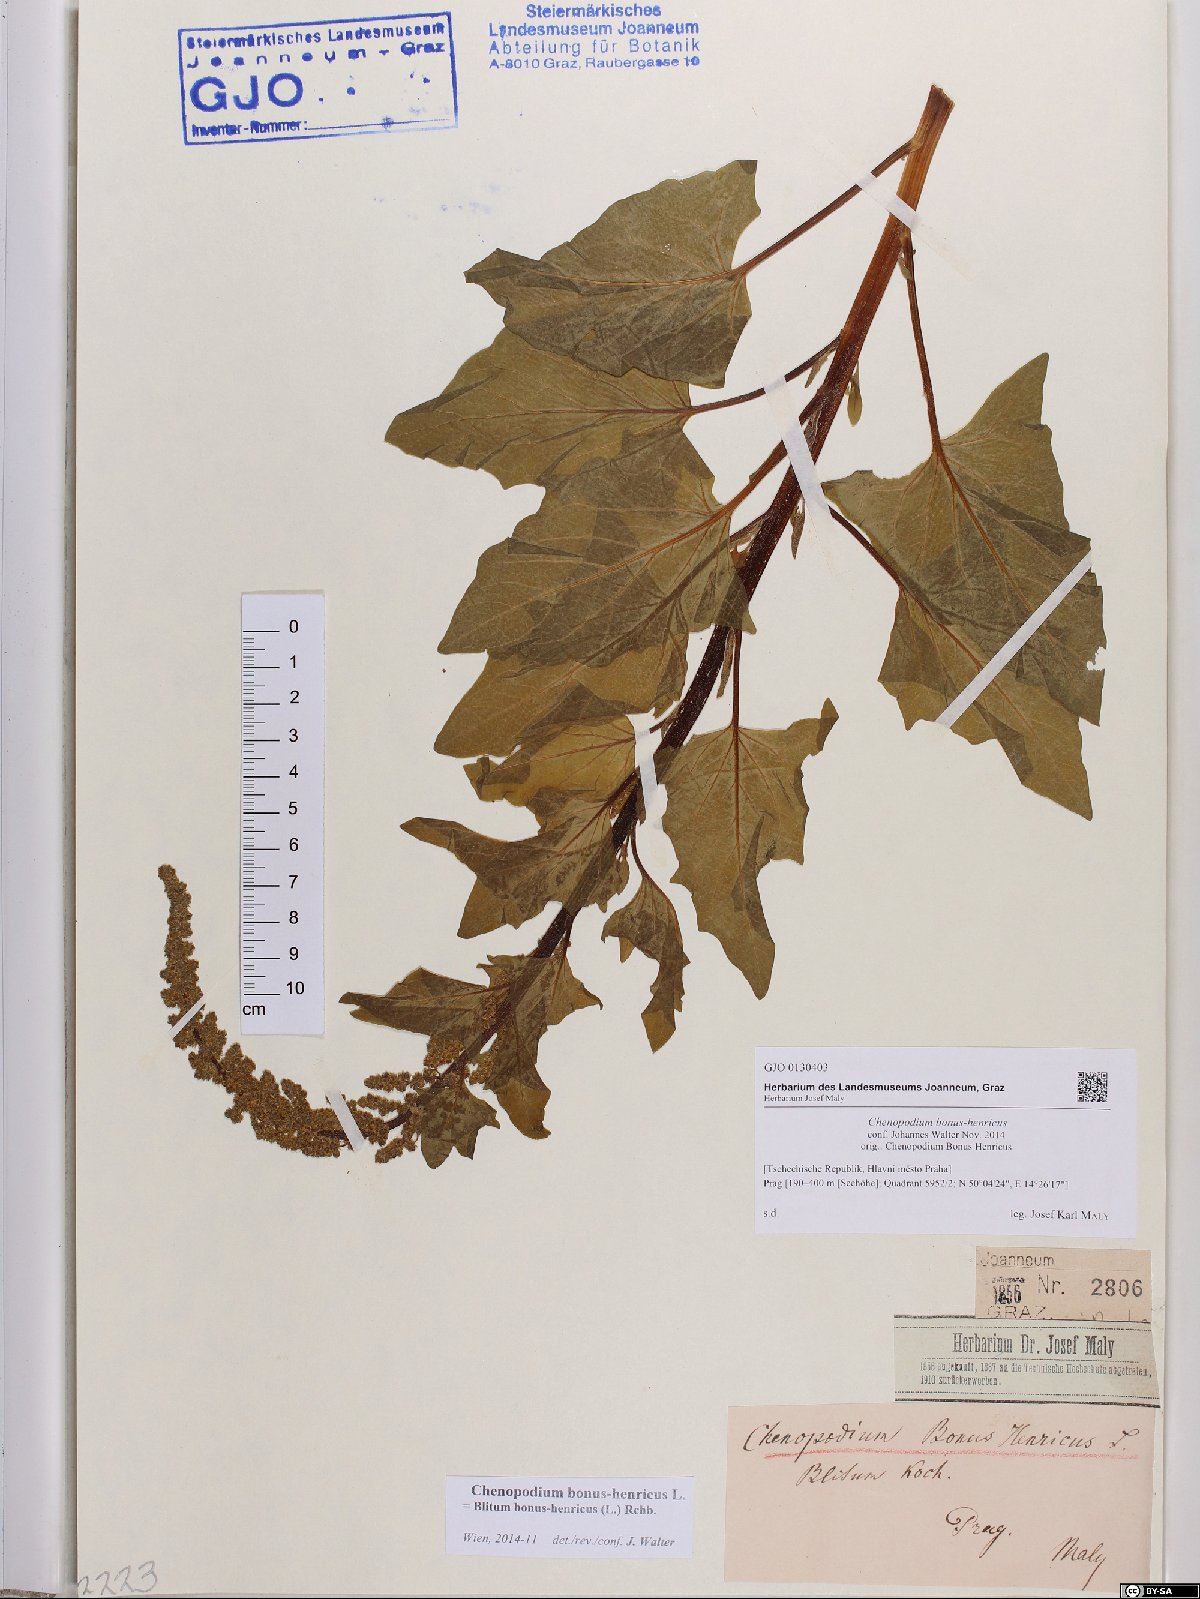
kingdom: Plantae
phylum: Tracheophyta
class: Magnoliopsida
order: Caryophyllales
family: Amaranthaceae
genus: Blitum
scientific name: Blitum bonus-henricus
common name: Good king henry
